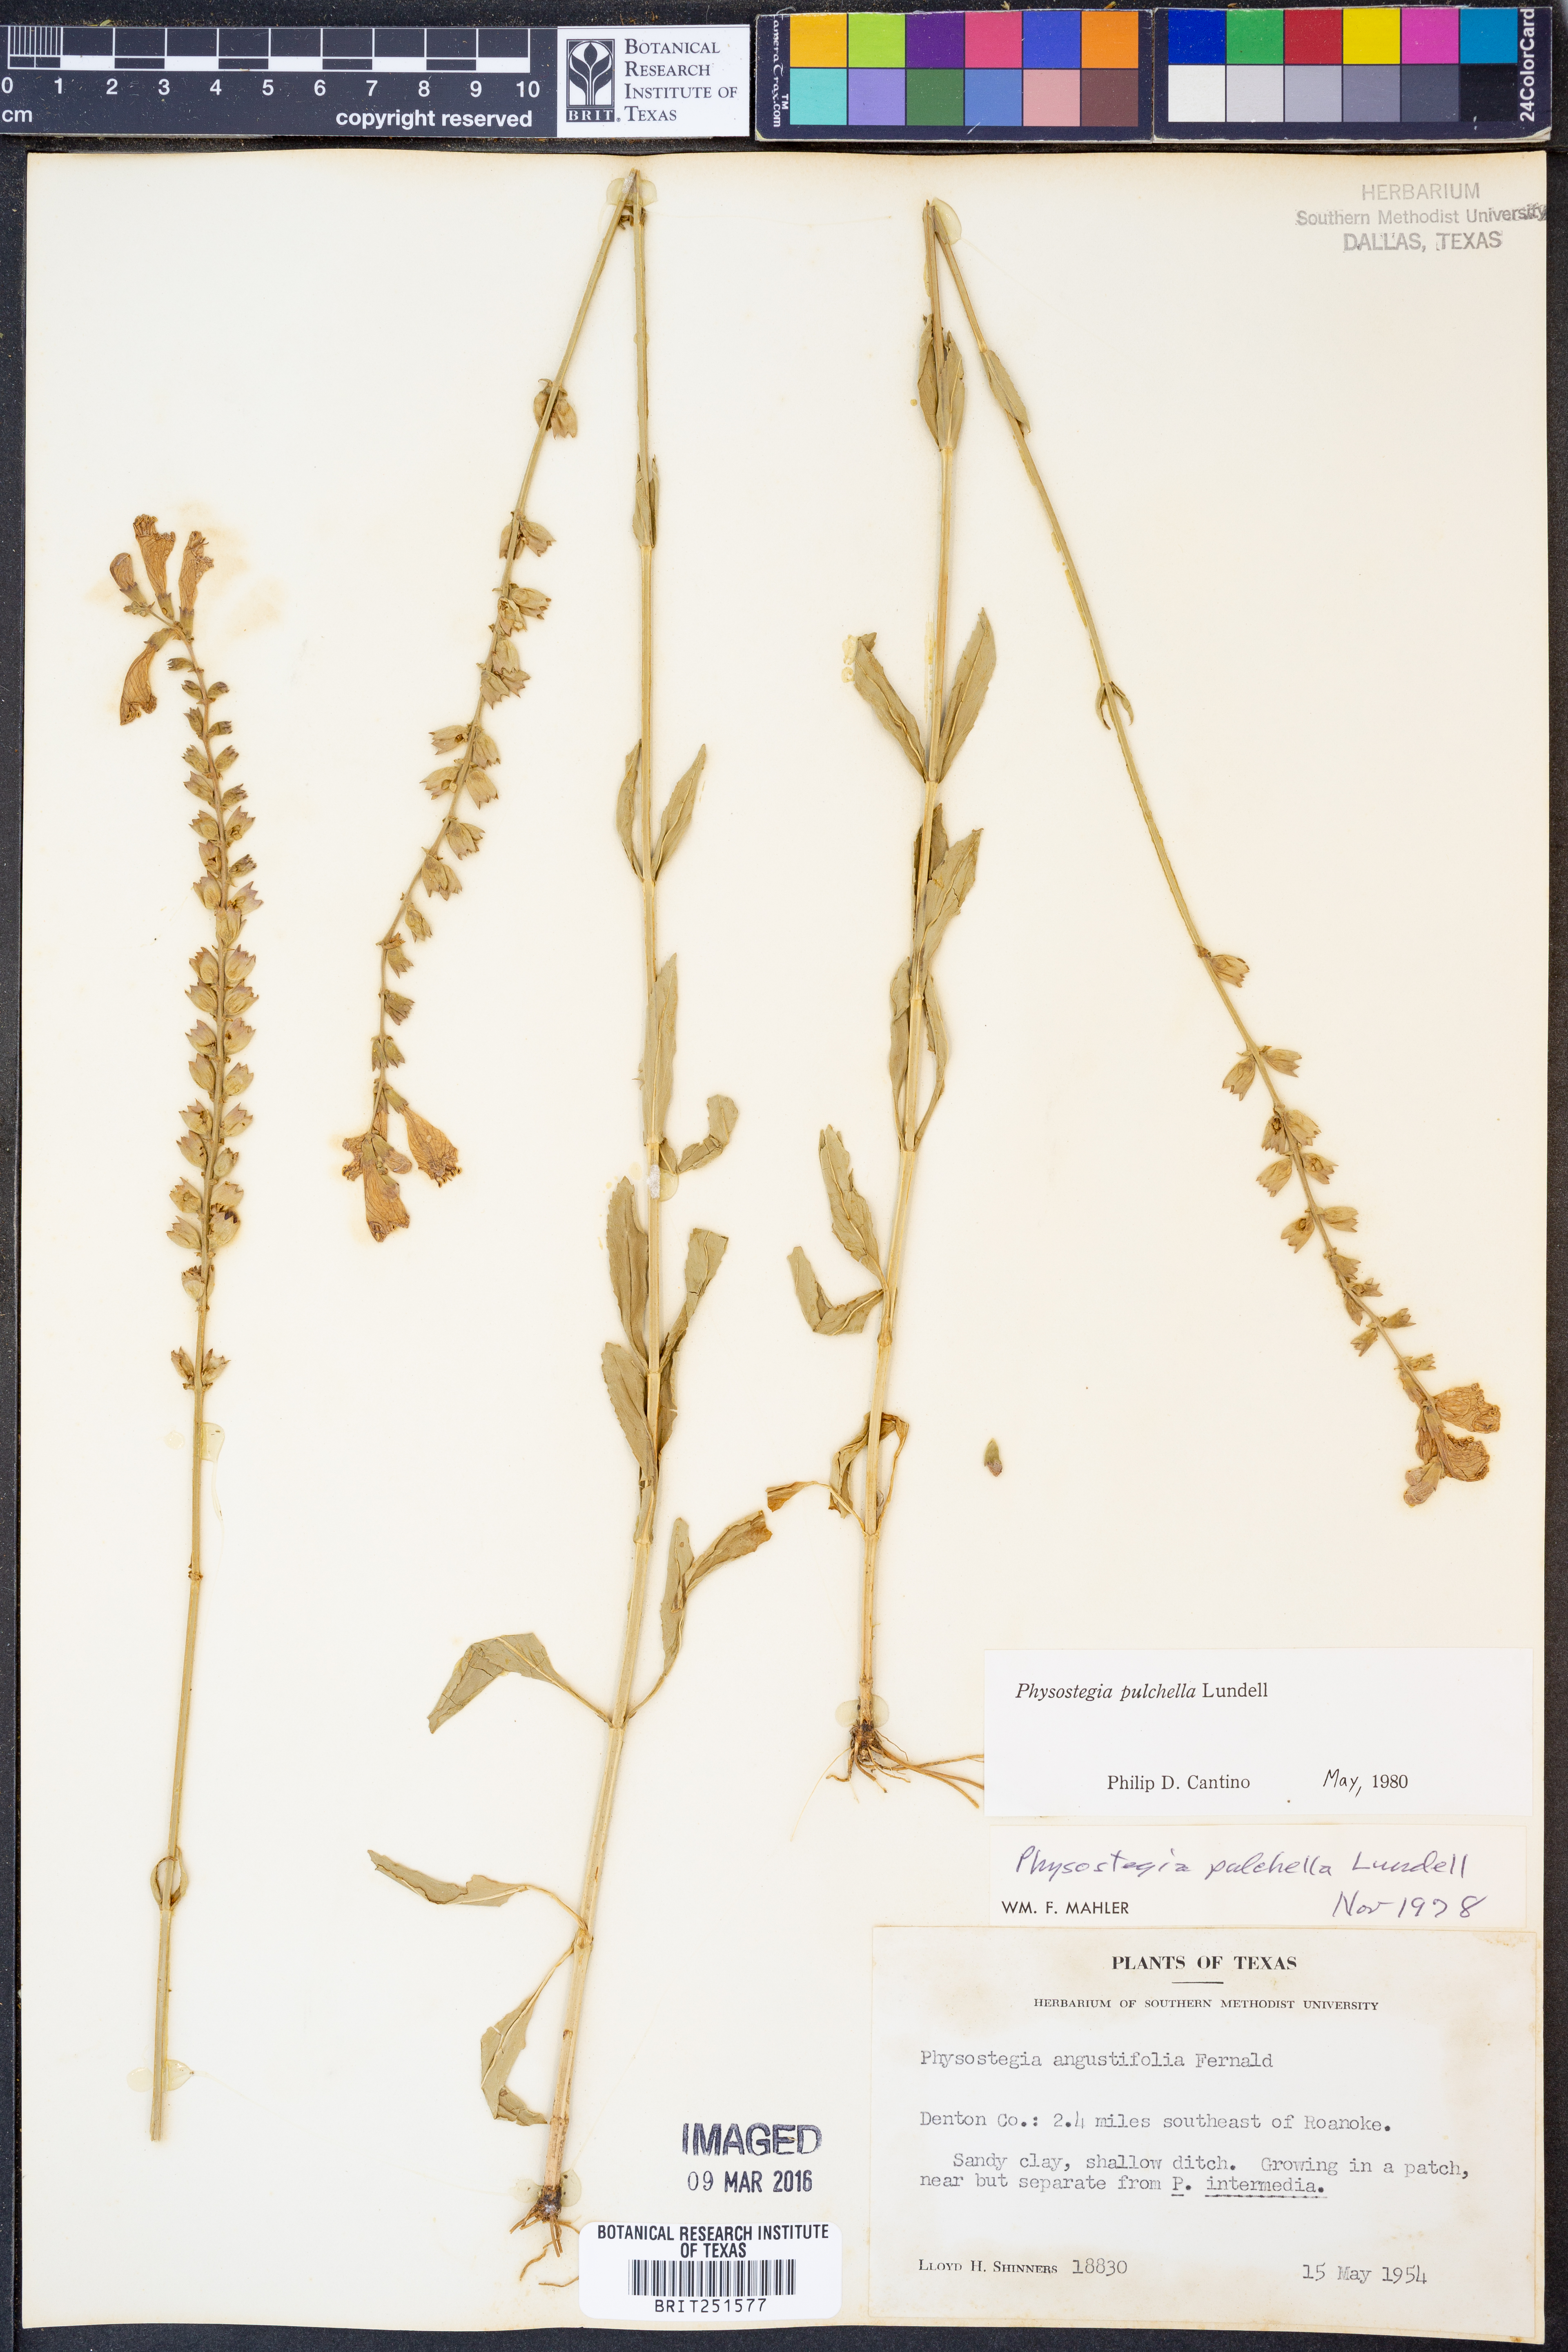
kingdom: Plantae
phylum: Tracheophyta
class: Magnoliopsida
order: Lamiales
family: Lamiaceae
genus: Physostegia
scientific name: Physostegia pulchella
